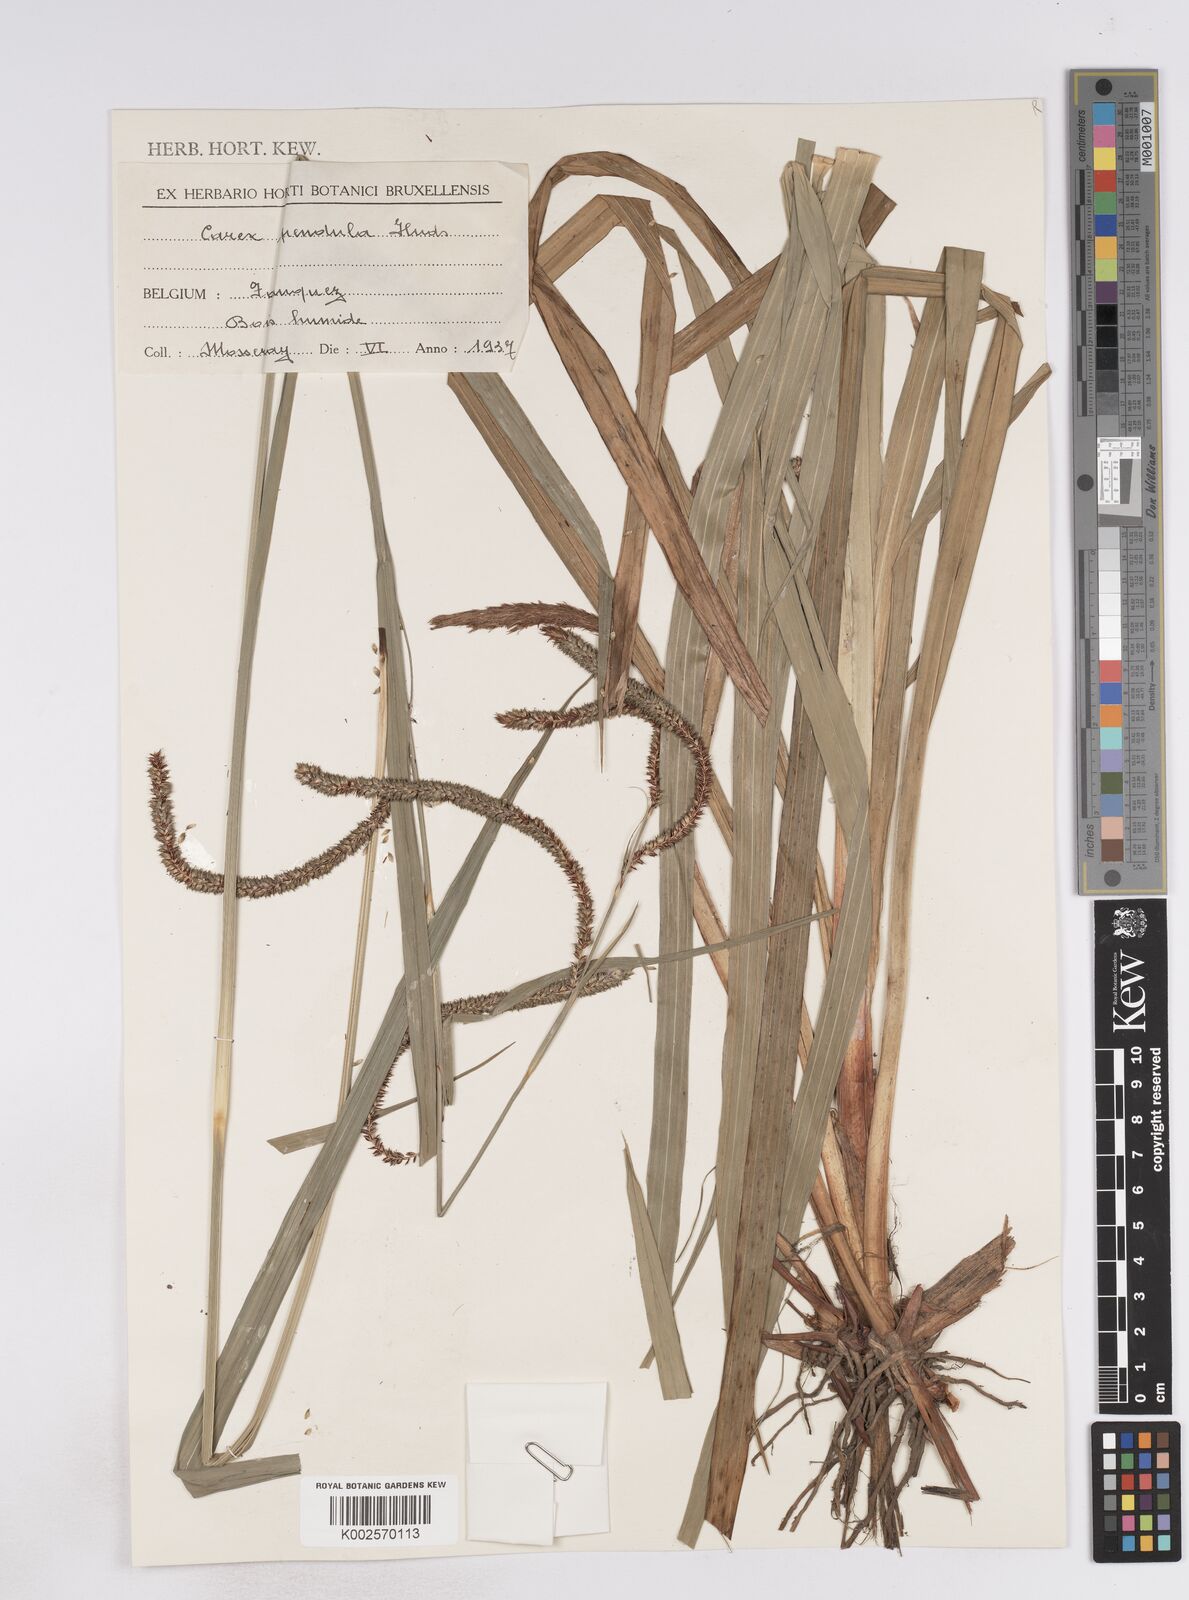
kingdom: Plantae
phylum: Tracheophyta
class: Liliopsida
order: Poales
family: Cyperaceae
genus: Carex
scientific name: Carex pendula
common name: Pendulous sedge
